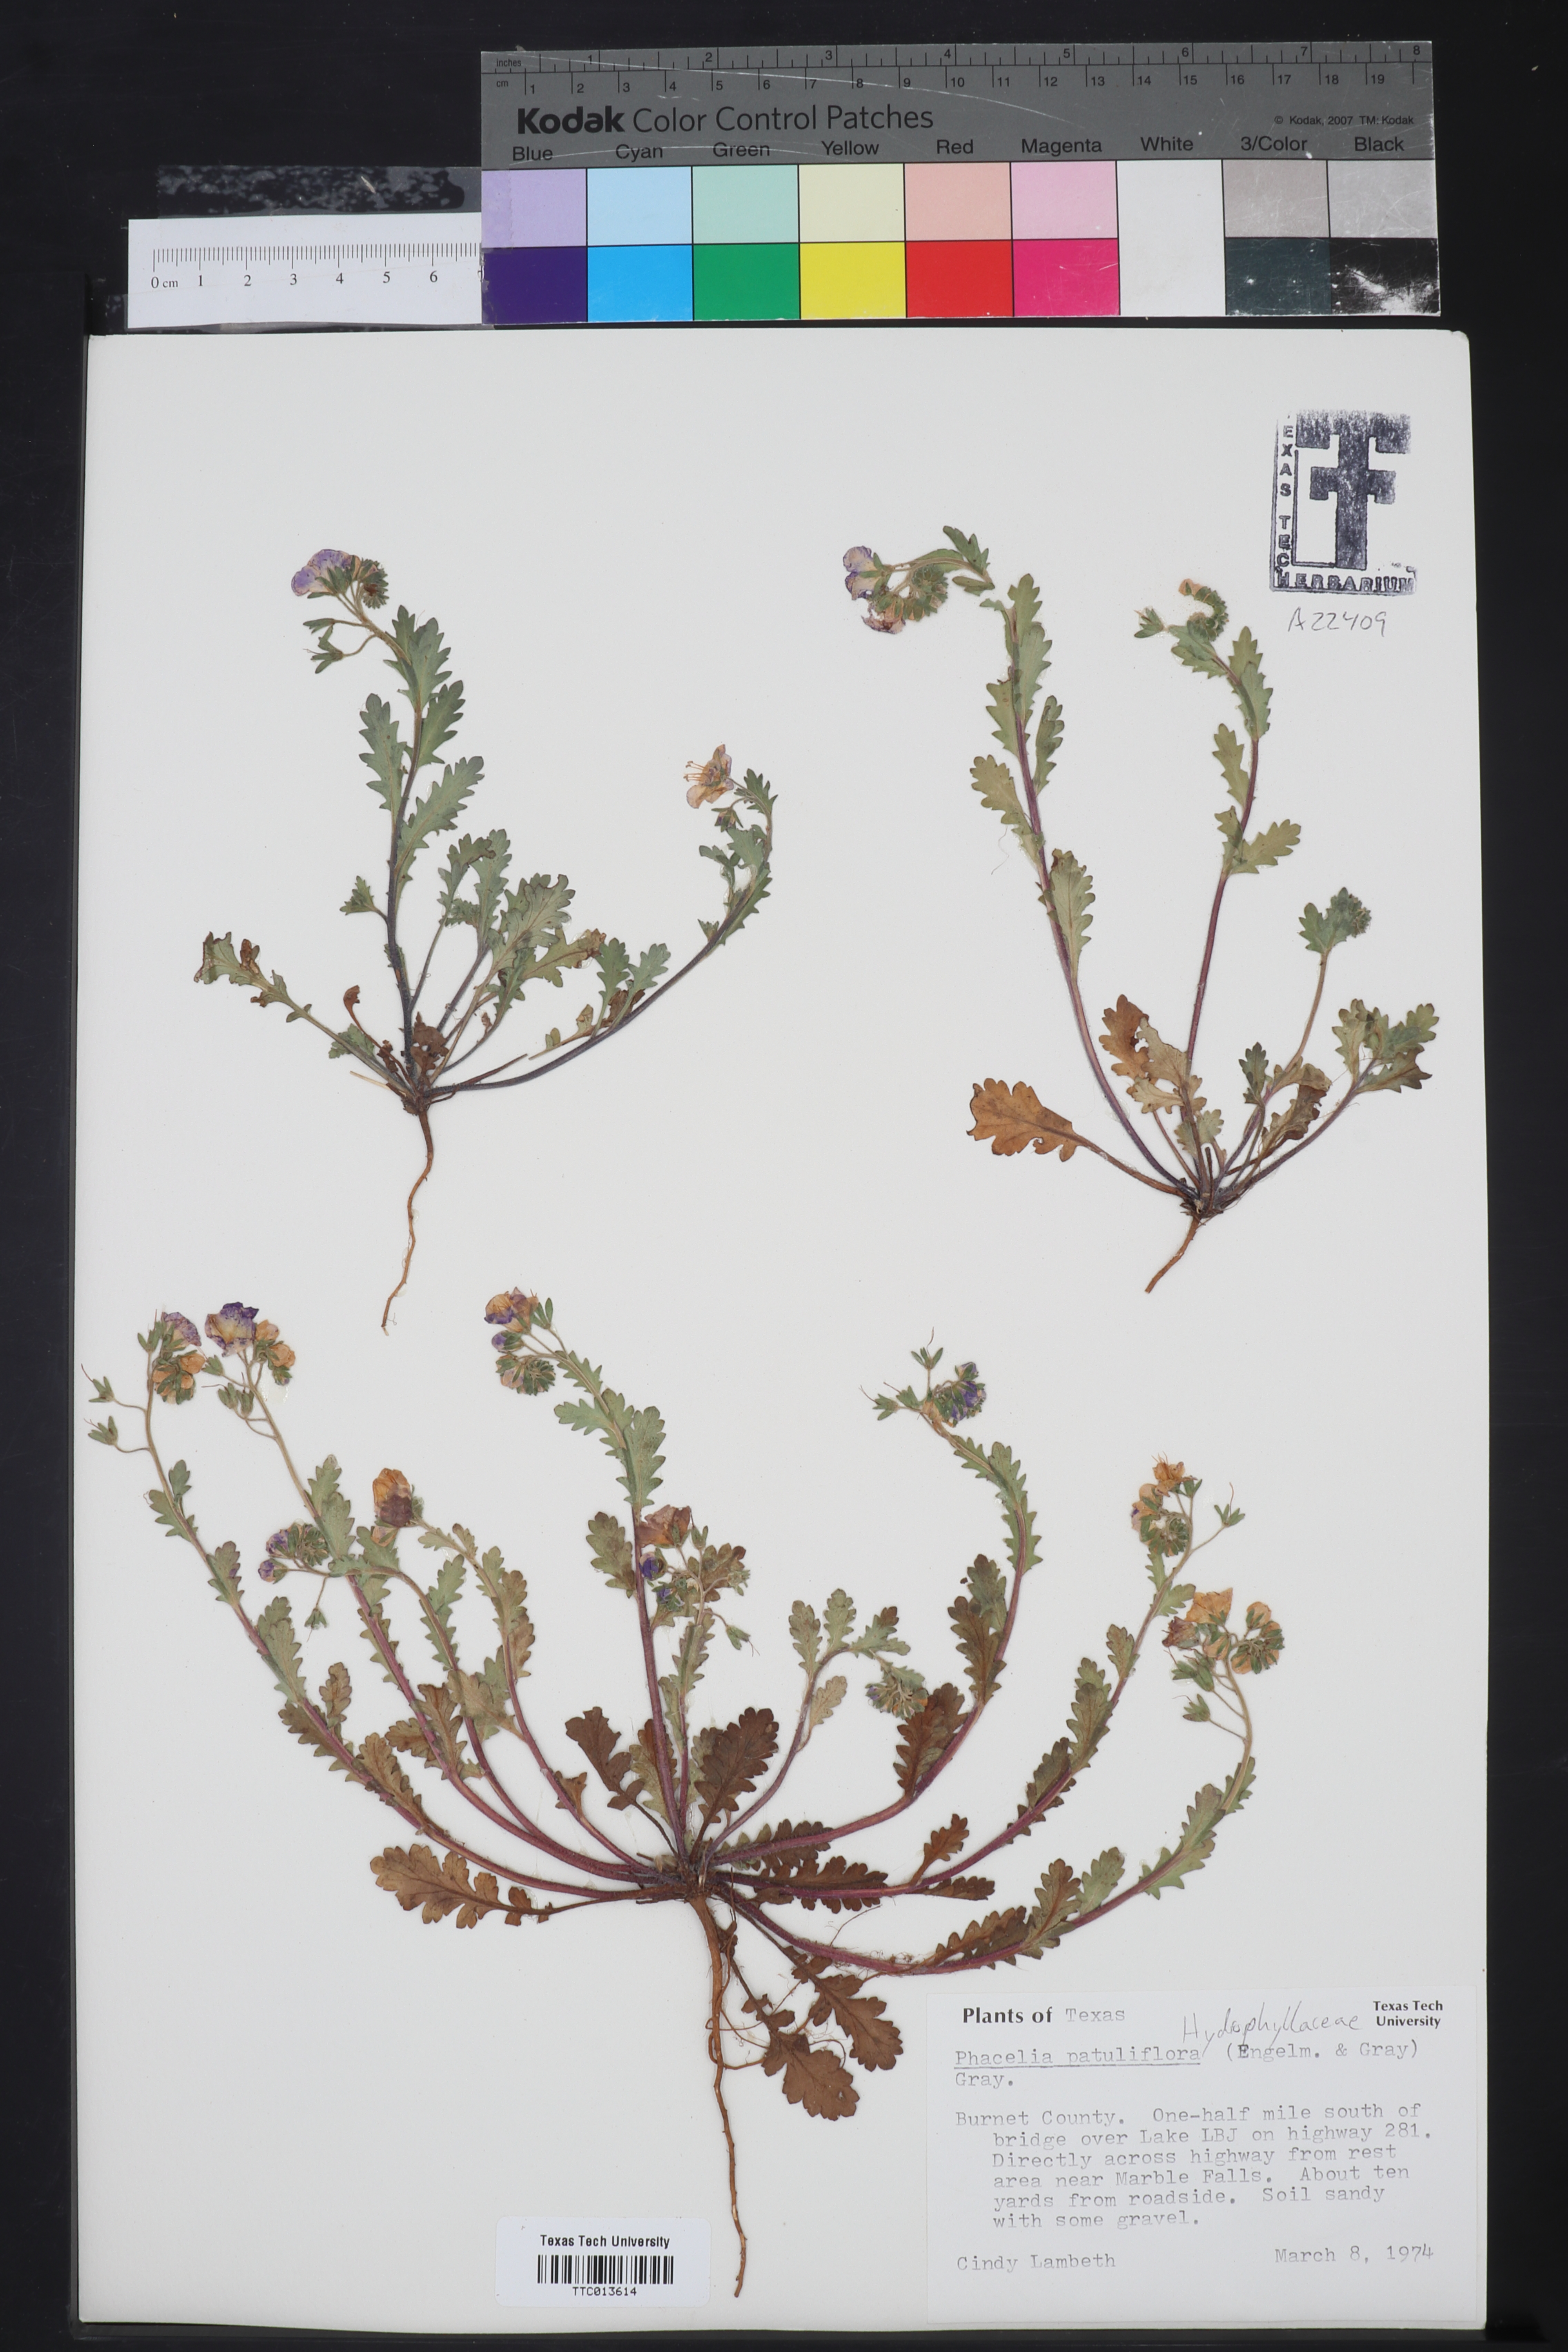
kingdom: Plantae
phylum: Tracheophyta
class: Magnoliopsida
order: Boraginales
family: Hydrophyllaceae
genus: Phacelia
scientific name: Phacelia patuliflora
